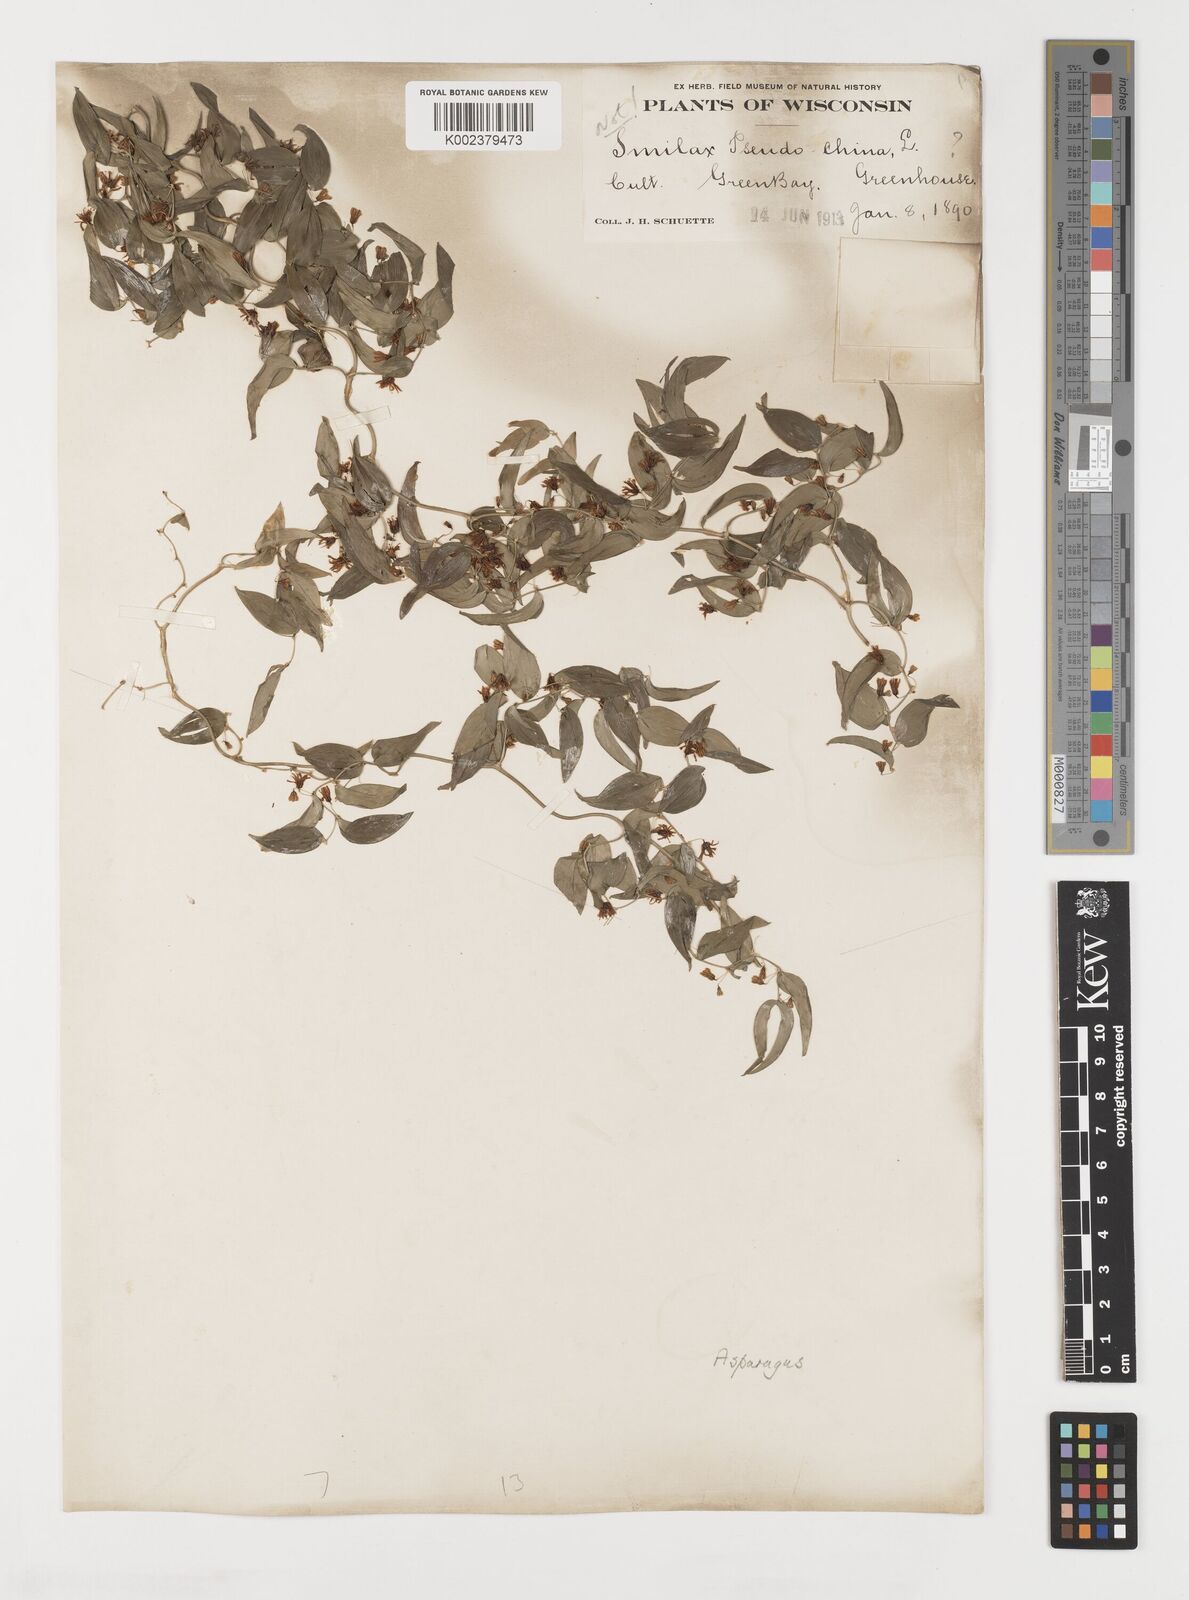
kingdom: Plantae
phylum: Tracheophyta
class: Liliopsida
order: Liliales
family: Smilacaceae
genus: Smilax
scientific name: Smilax
